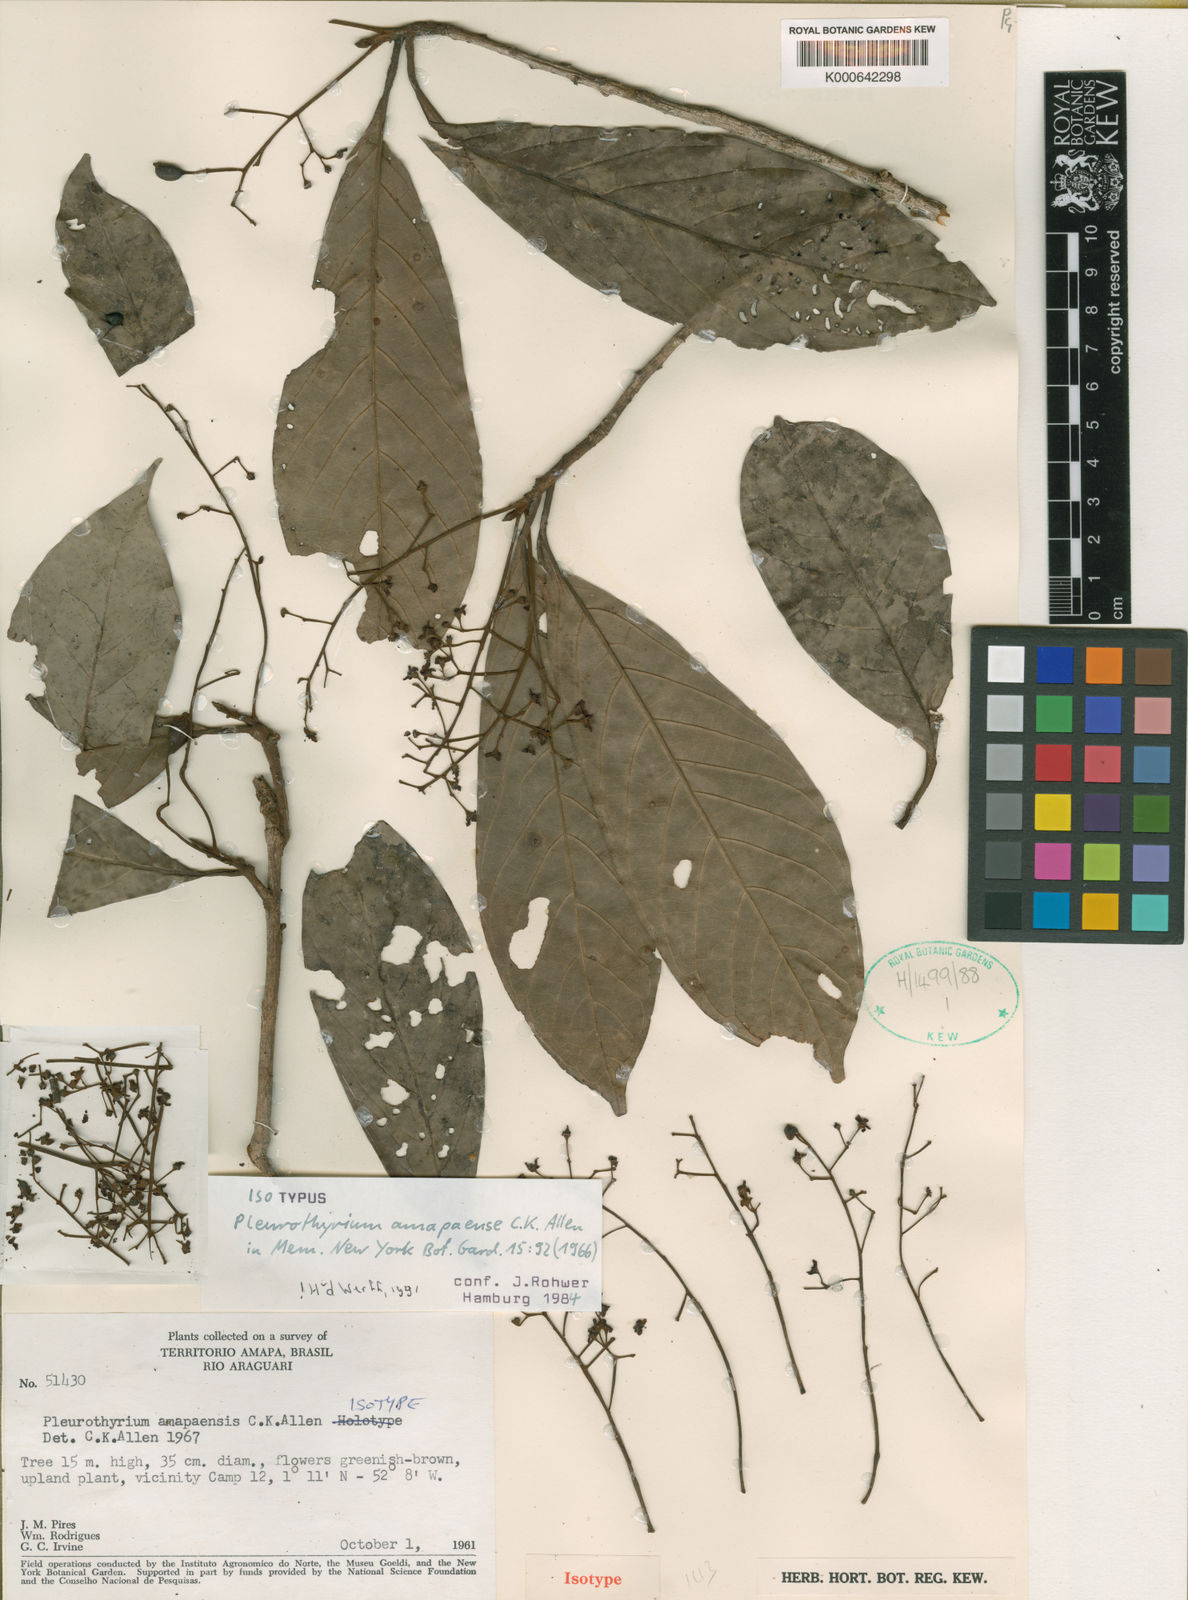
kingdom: Plantae
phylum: Tracheophyta
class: Magnoliopsida
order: Laurales
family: Lauraceae
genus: Pleurothyrium
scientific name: Pleurothyrium amapaense
